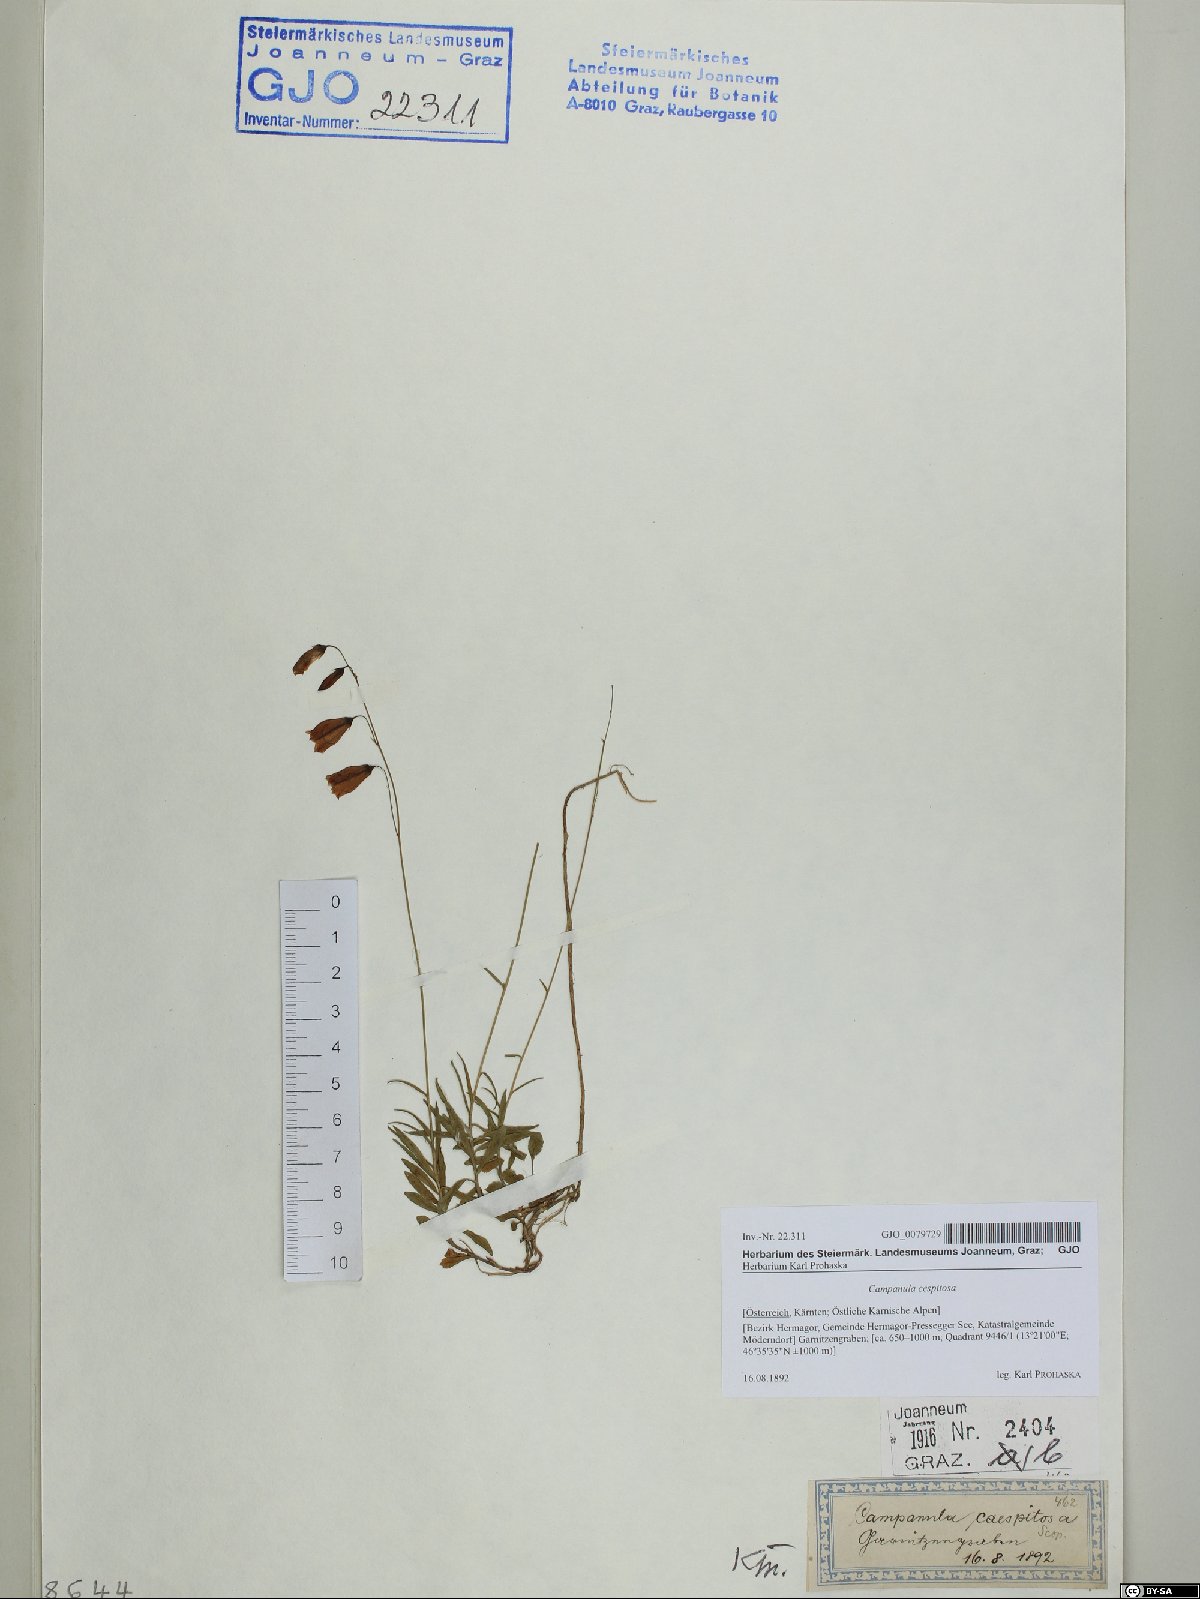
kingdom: Plantae
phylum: Tracheophyta
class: Magnoliopsida
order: Asterales
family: Campanulaceae
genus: Campanula
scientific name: Campanula cespitosa
